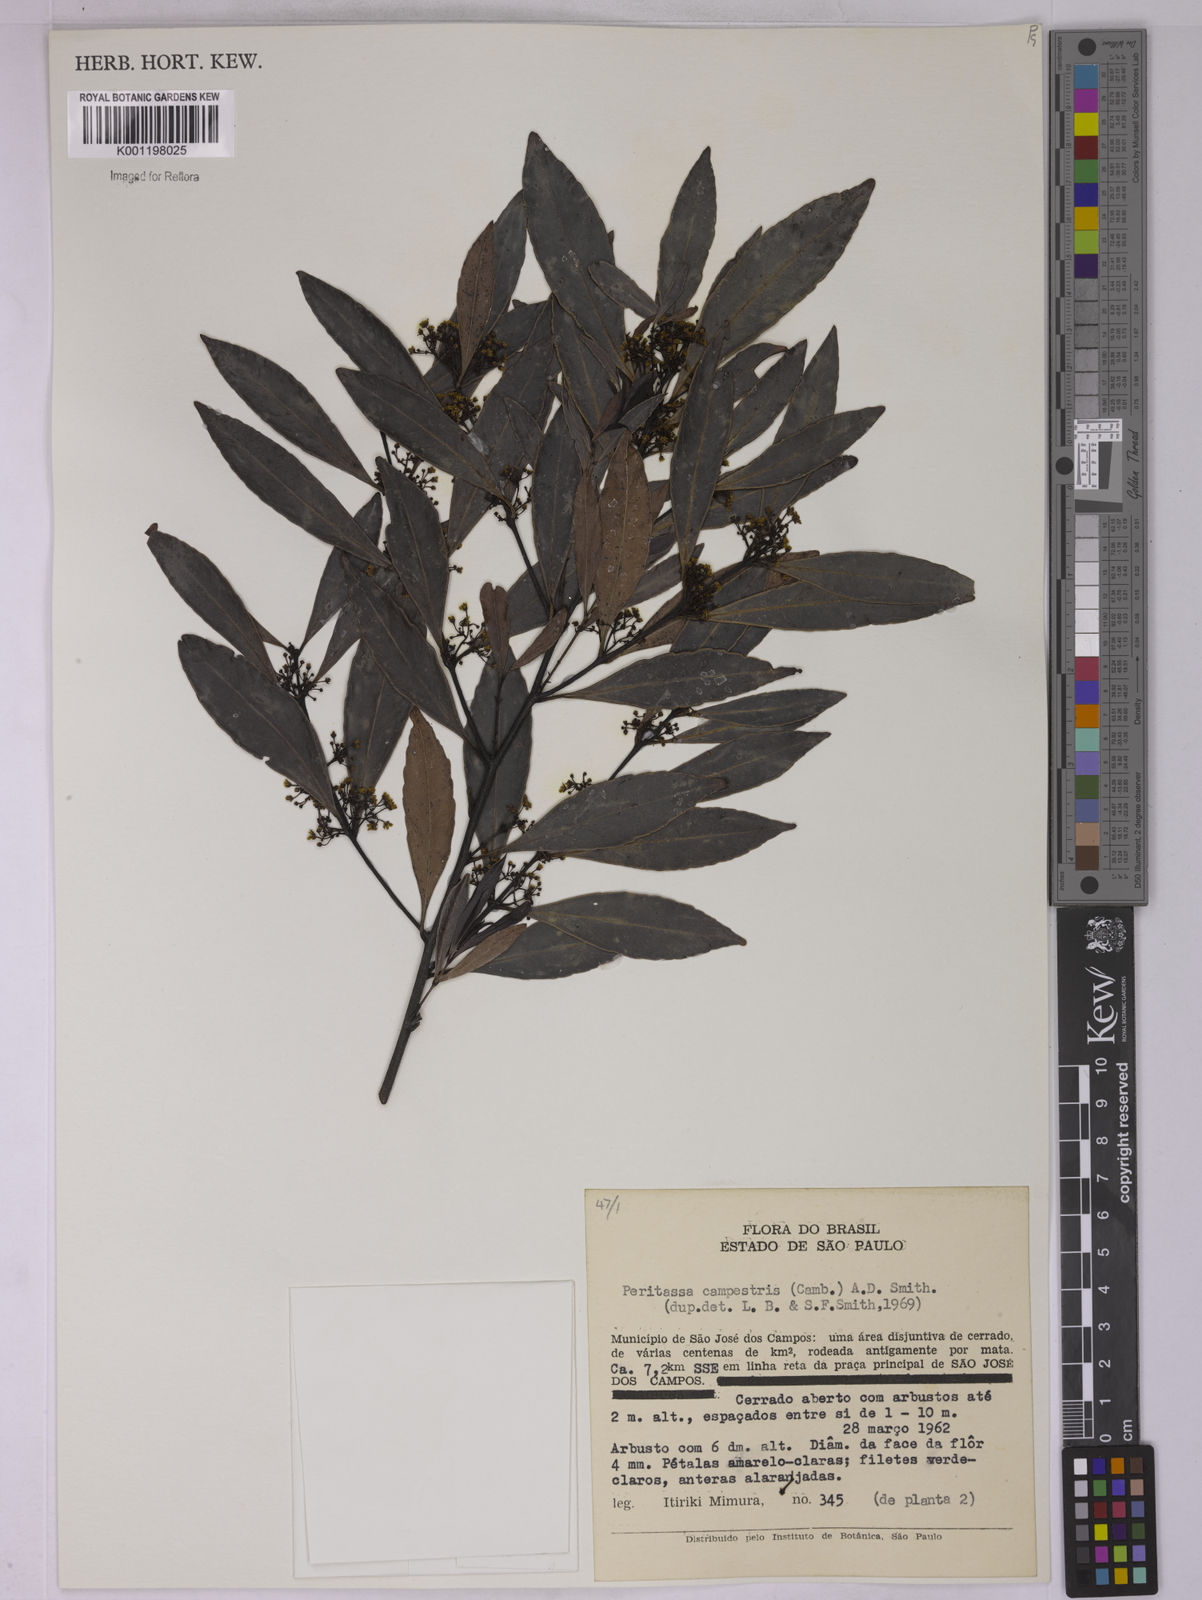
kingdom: Plantae
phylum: Tracheophyta
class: Magnoliopsida
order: Celastrales
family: Celastraceae
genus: Peritassa
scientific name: Peritassa campestris
